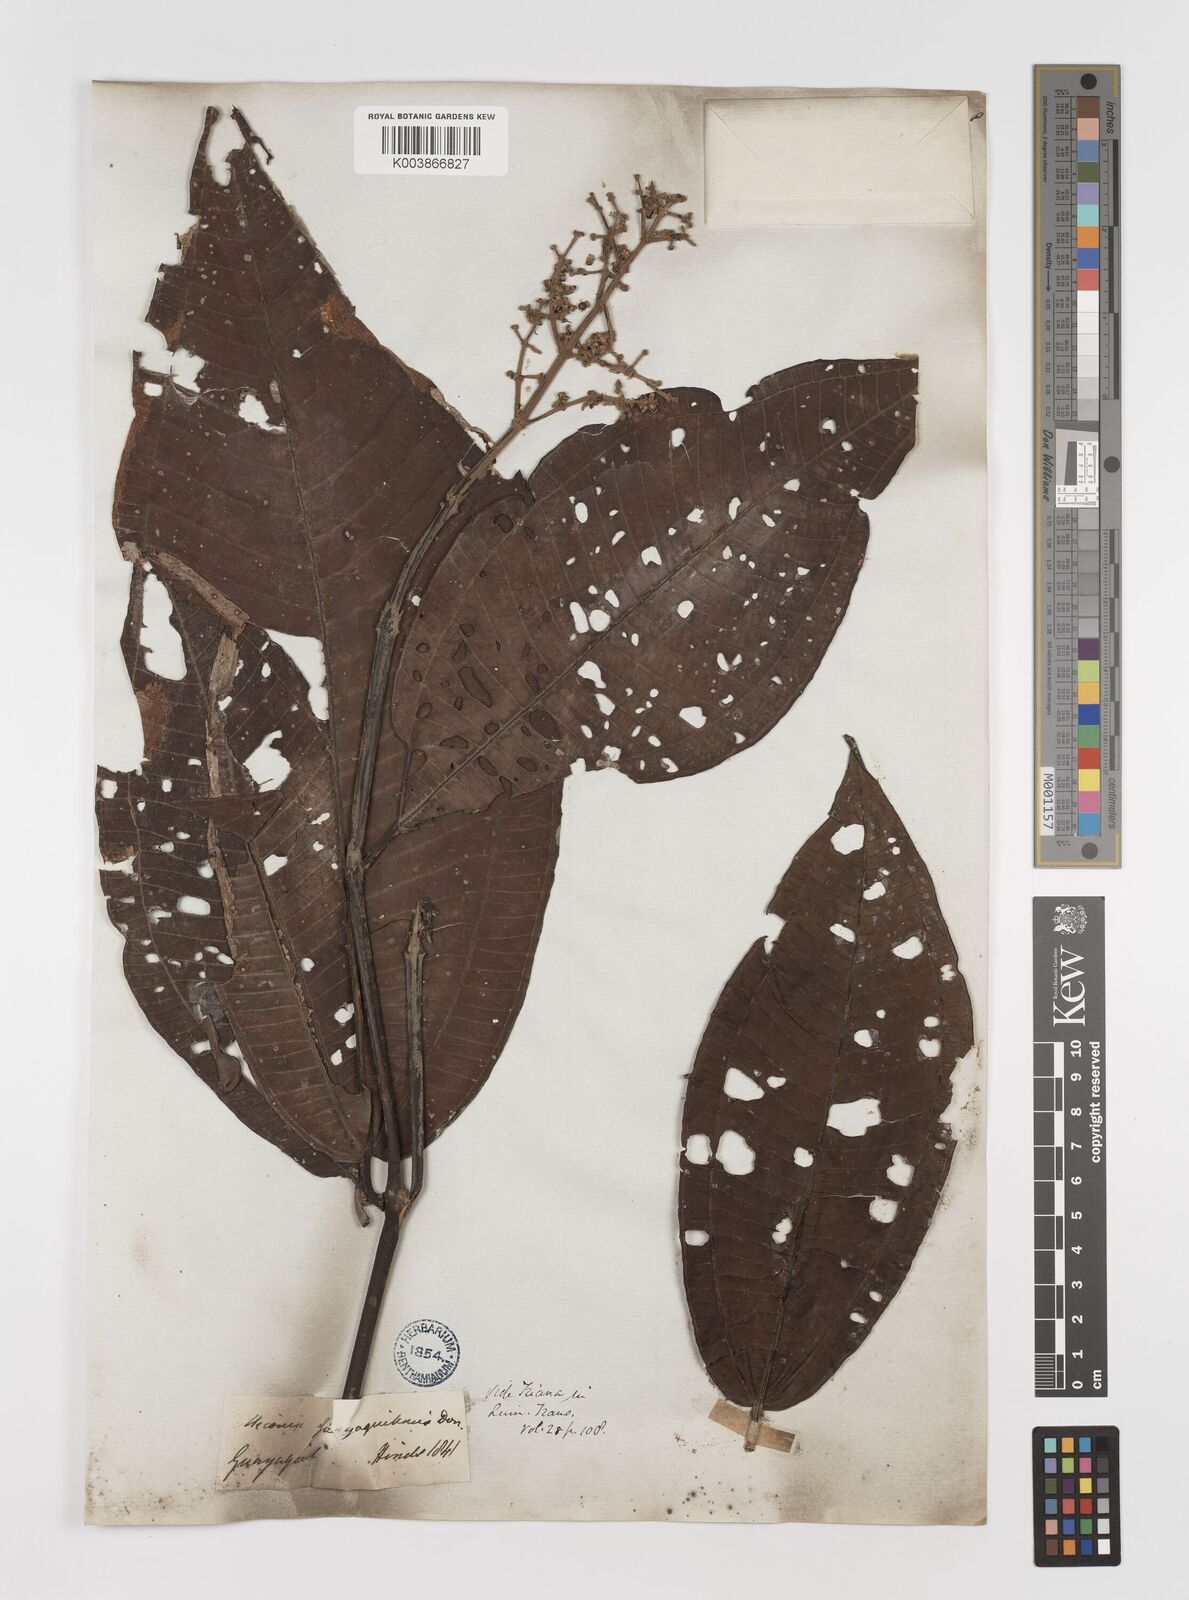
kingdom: Plantae
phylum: Tracheophyta
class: Magnoliopsida
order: Myrtales
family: Melastomataceae
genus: Miconia
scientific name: Miconia guayaquilensis
